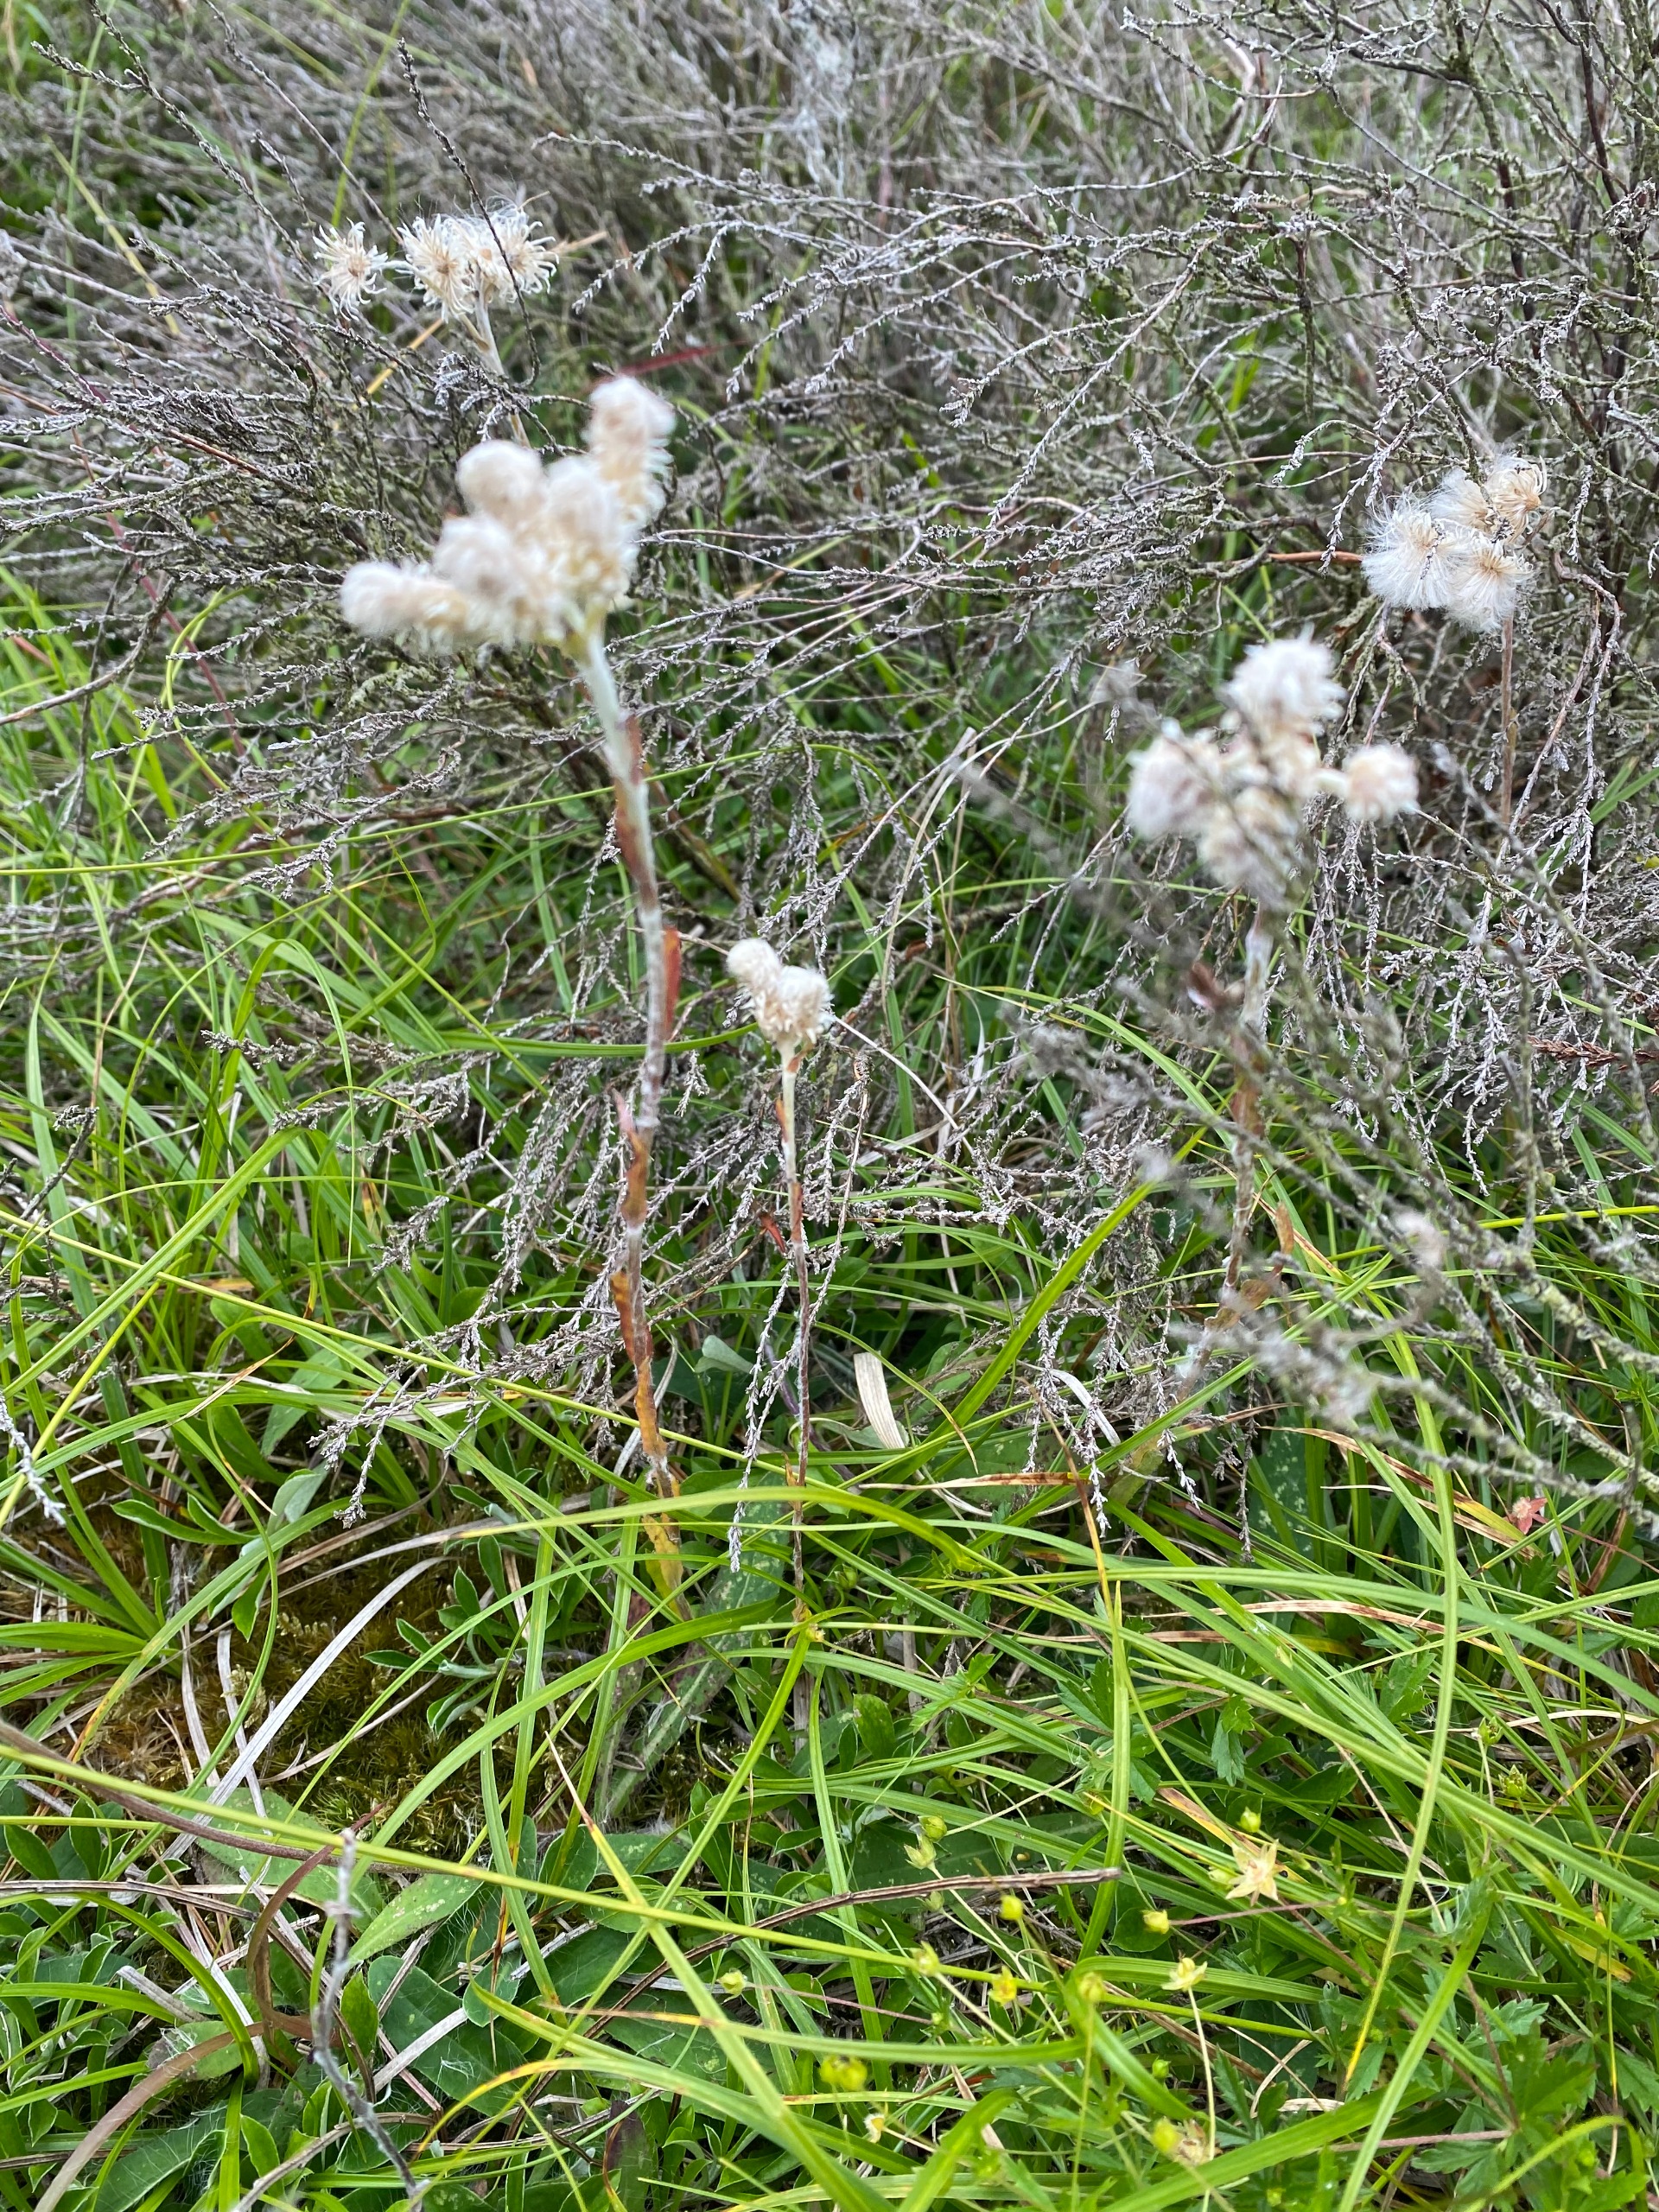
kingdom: Plantae
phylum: Tracheophyta
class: Magnoliopsida
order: Asterales
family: Asteraceae
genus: Antennaria
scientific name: Antennaria dioica
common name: Kattefod
